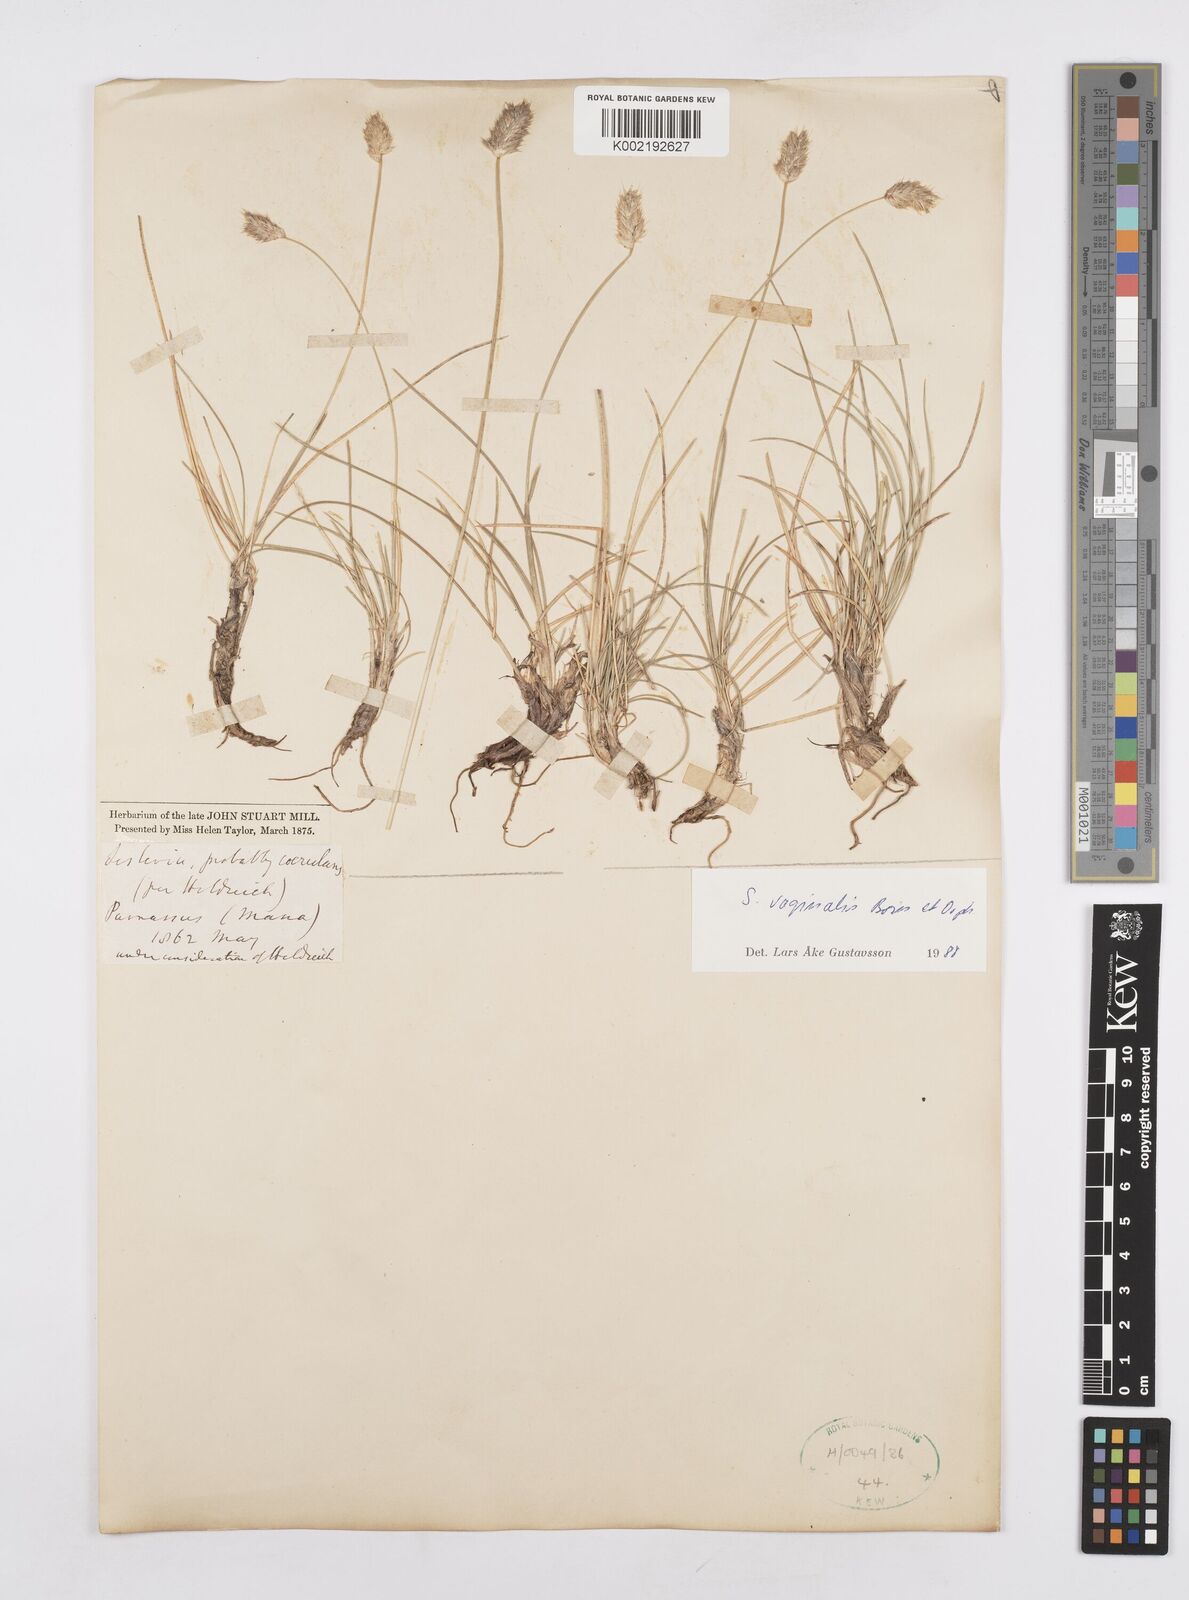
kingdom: Plantae
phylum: Tracheophyta
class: Liliopsida
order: Poales
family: Poaceae
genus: Sesleria
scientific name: Sesleria vaginalis
